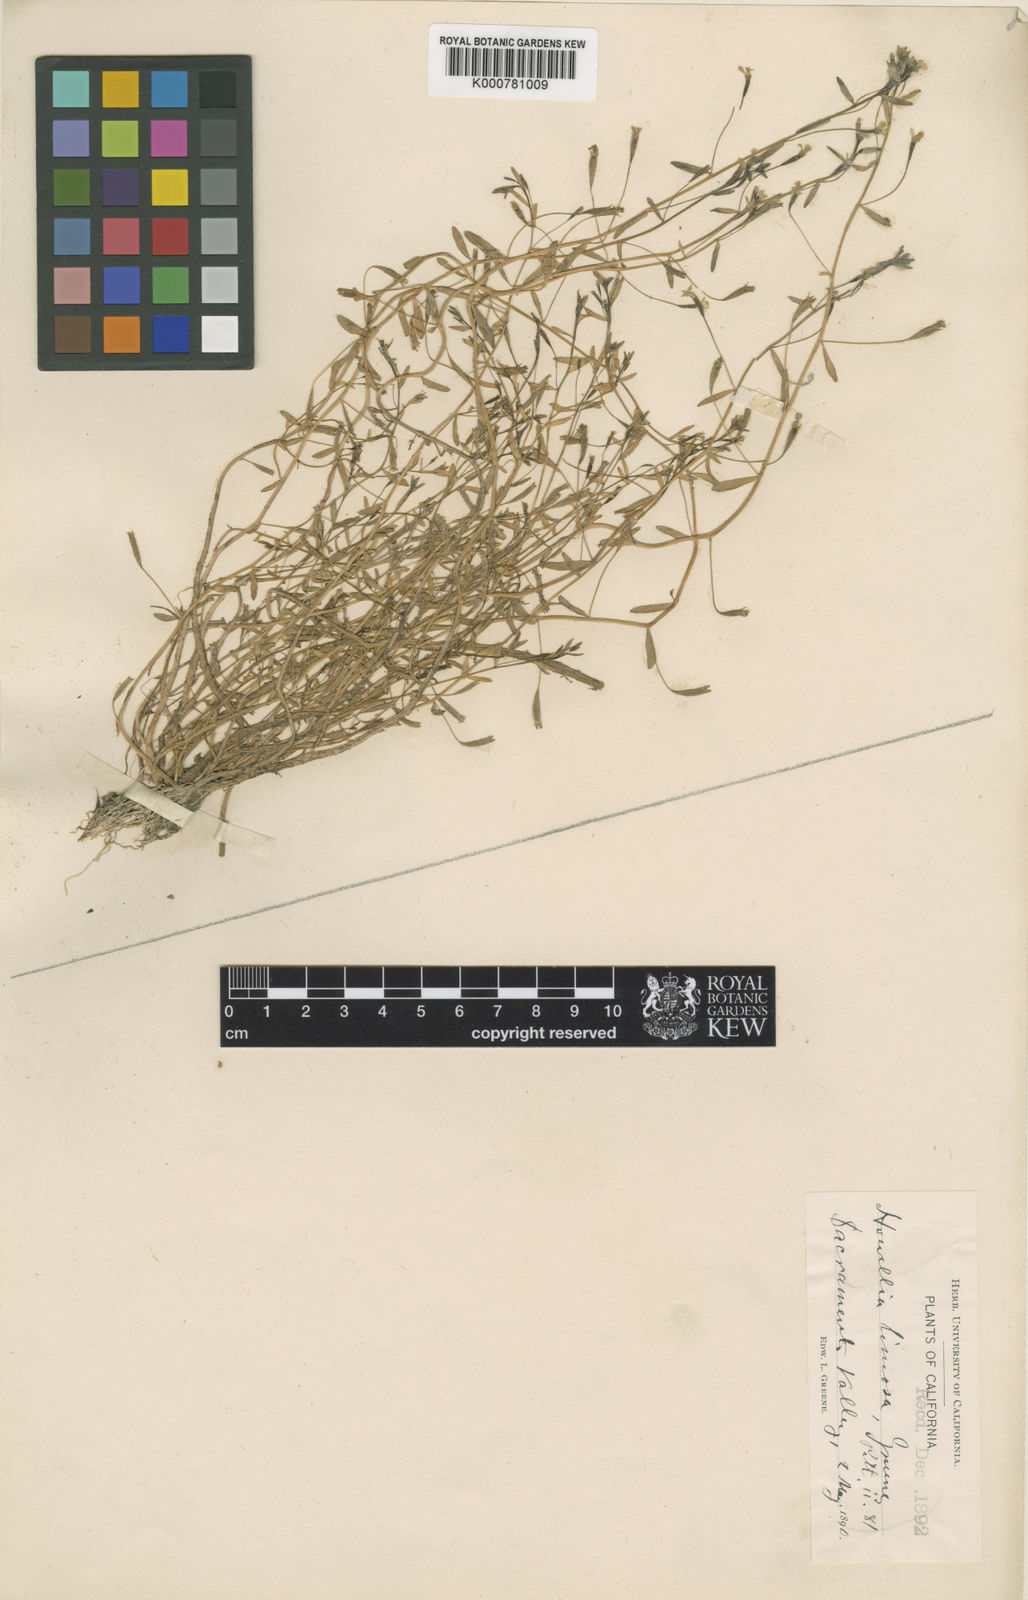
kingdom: Plantae
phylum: Tracheophyta
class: Magnoliopsida
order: Asterales
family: Campanulaceae
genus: Legenere
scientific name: Legenere valdiviana
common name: False venus' looking glass
